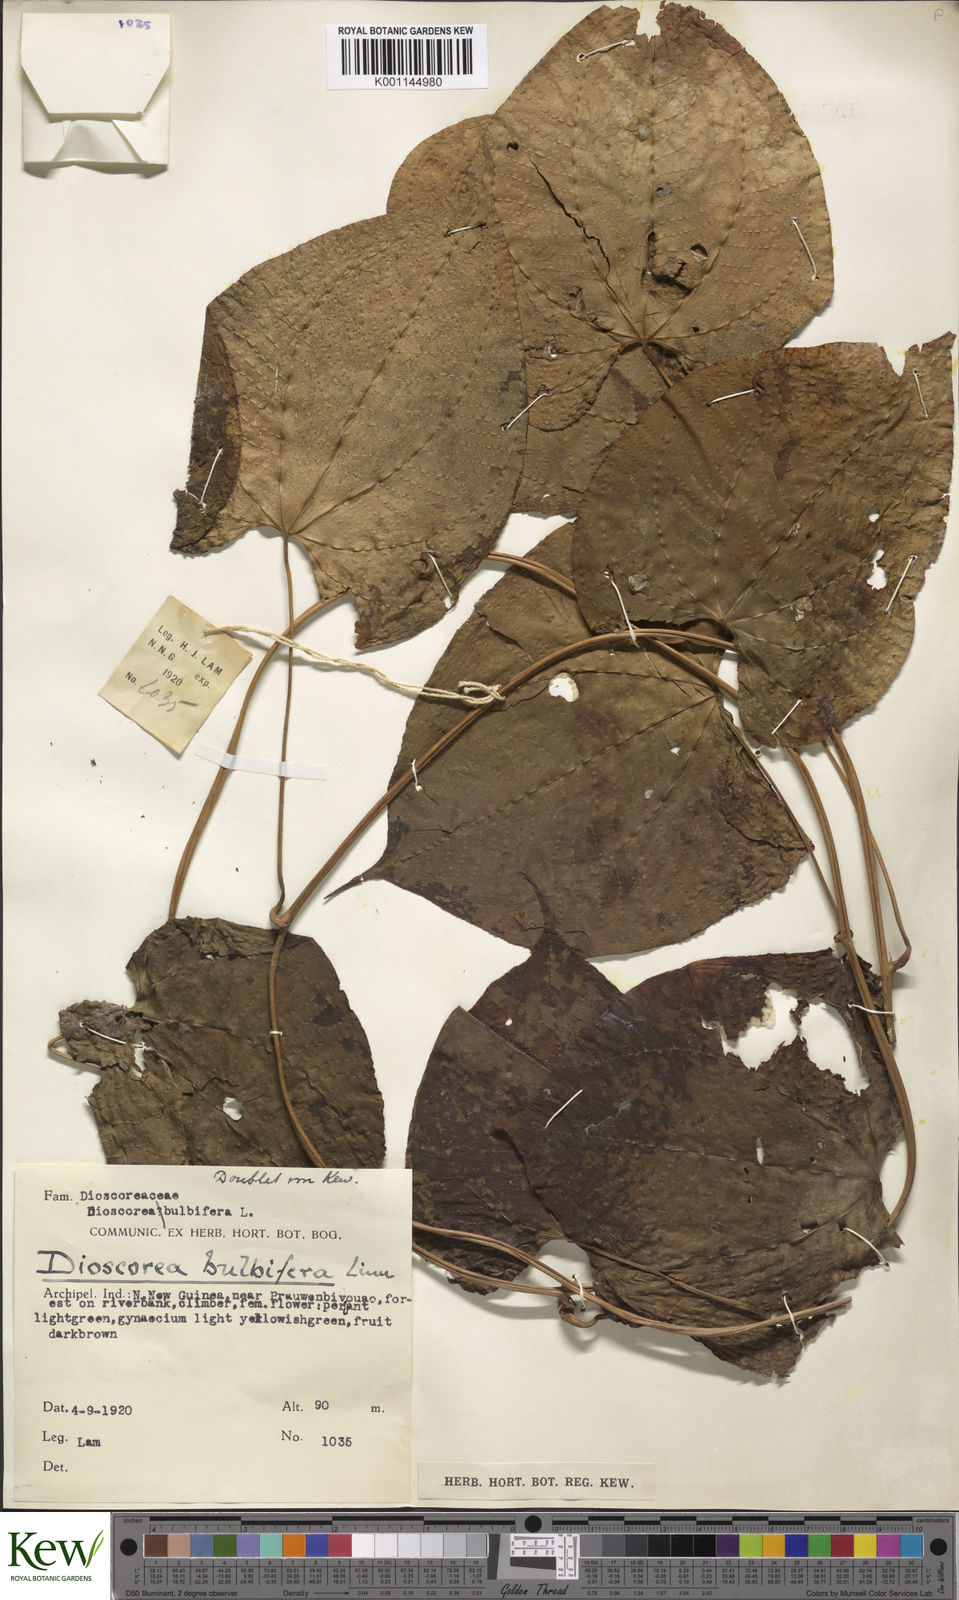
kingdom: Plantae
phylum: Tracheophyta
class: Liliopsida
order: Dioscoreales
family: Dioscoreaceae
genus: Dioscorea
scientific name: Dioscorea bulbifera
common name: Air yam
